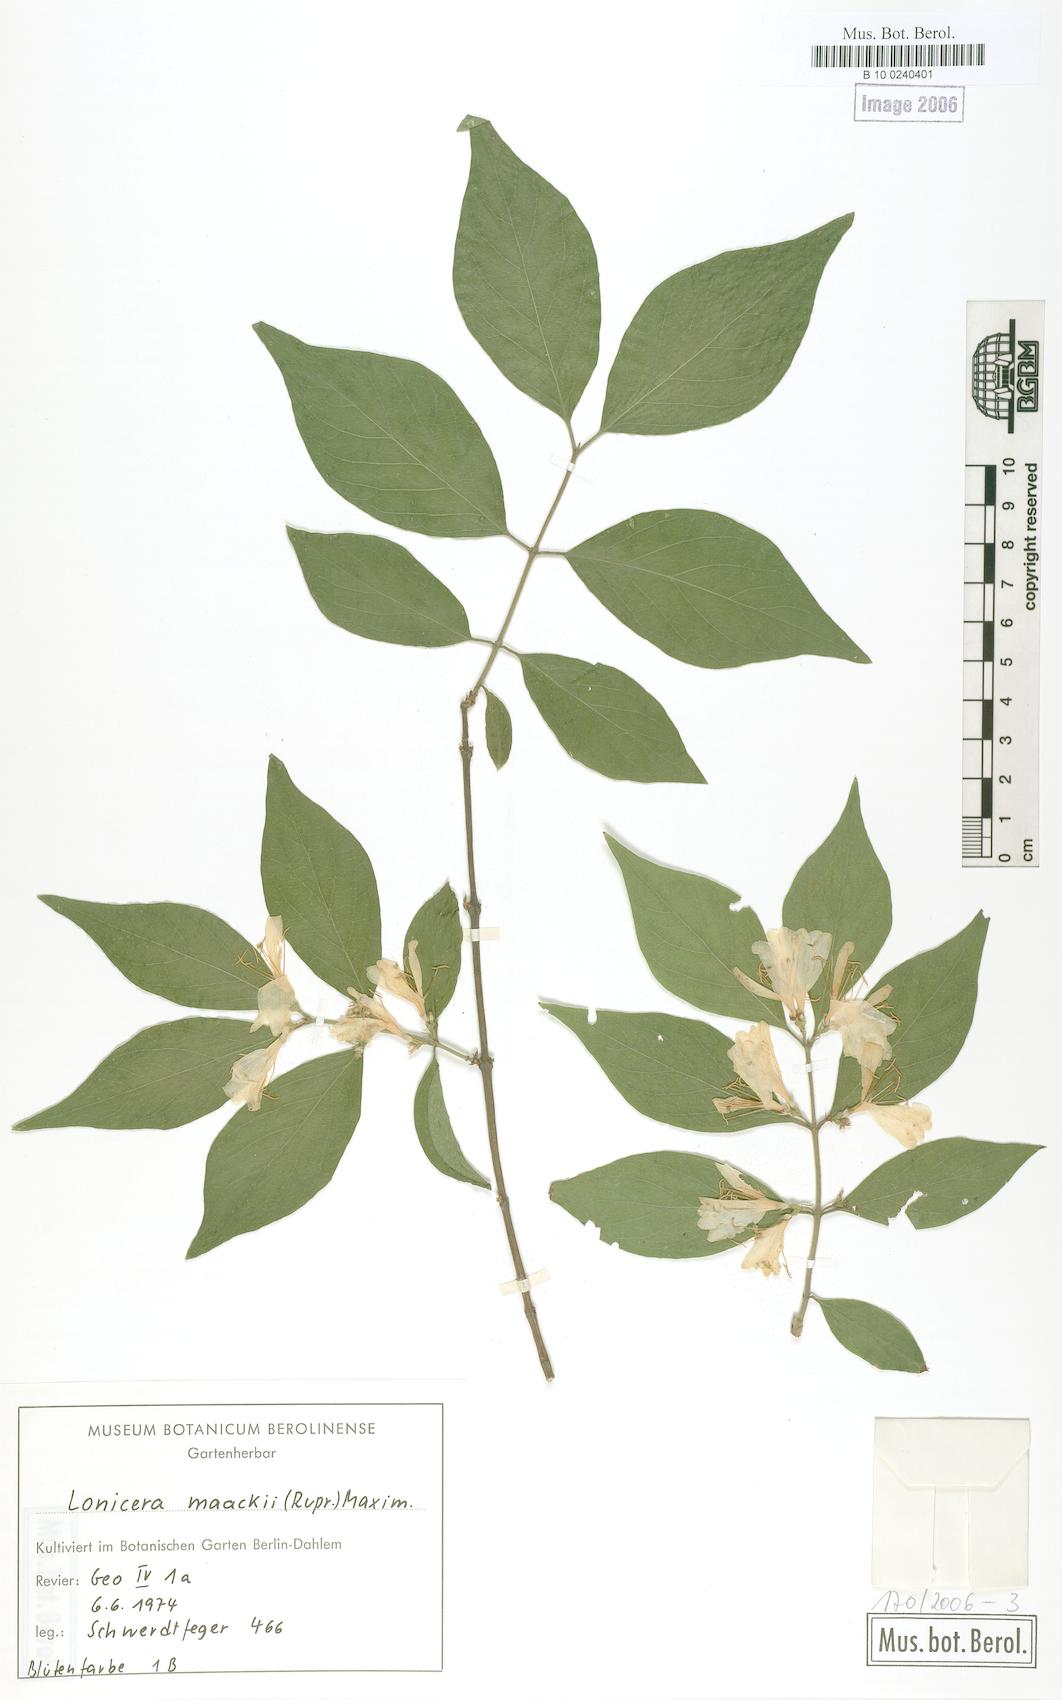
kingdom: Plantae
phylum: Tracheophyta
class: Magnoliopsida
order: Dipsacales
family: Caprifoliaceae
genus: Lonicera
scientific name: Lonicera maackii
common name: Amur honeysuckle
